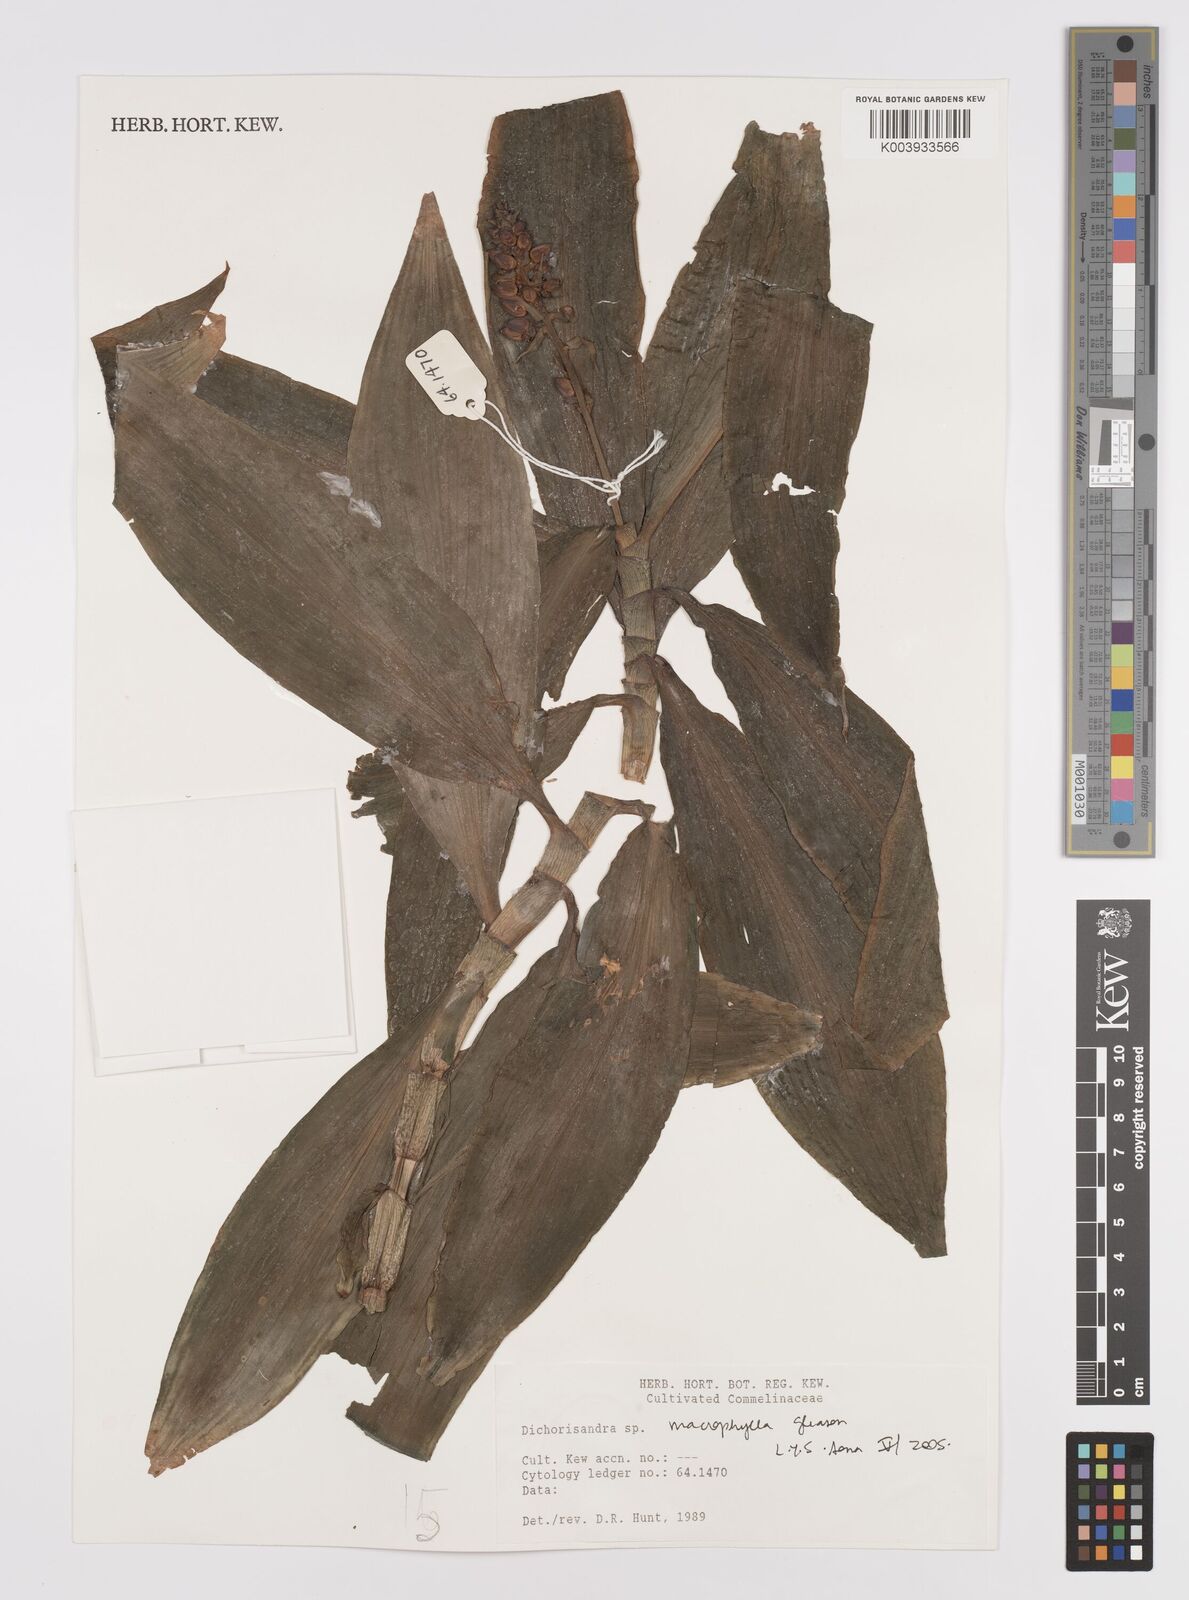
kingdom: Plantae
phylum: Tracheophyta
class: Liliopsida
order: Commelinales
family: Commelinaceae
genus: Dichorisandra
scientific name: Dichorisandra albomarginata
